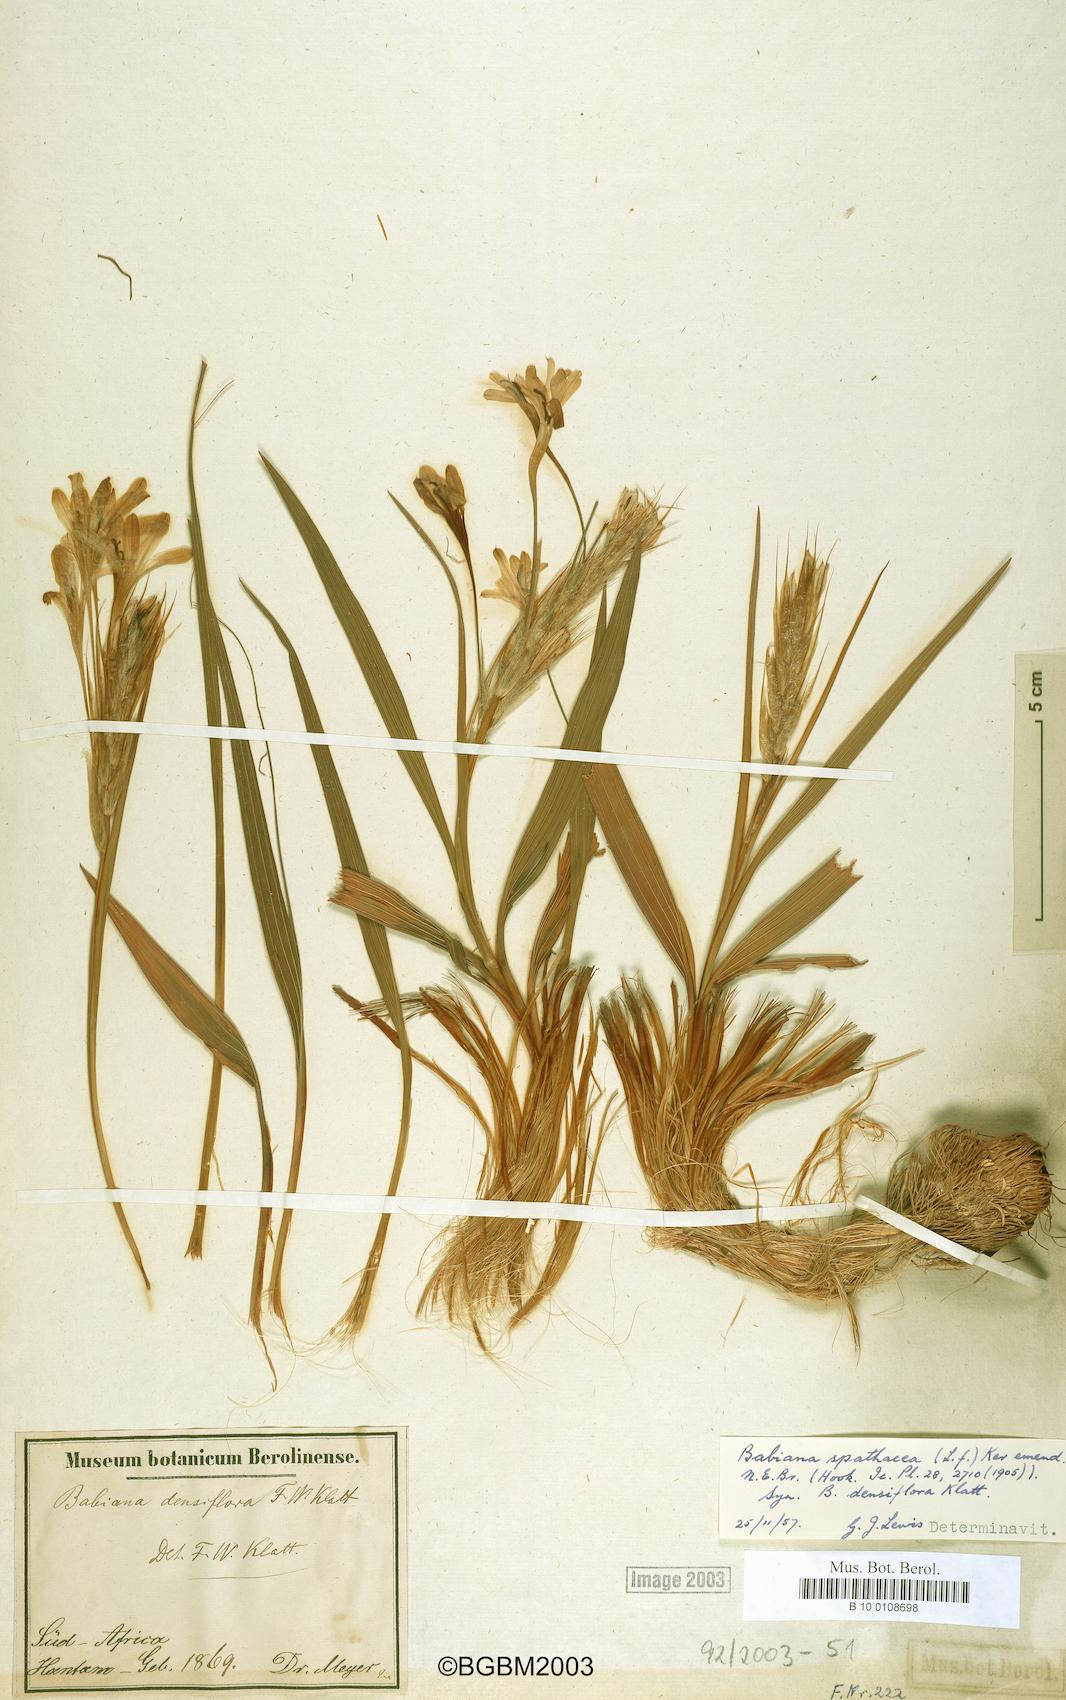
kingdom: Plantae
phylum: Tracheophyta
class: Liliopsida
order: Asparagales
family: Iridaceae
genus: Babiana
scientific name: Babiana spathacea
